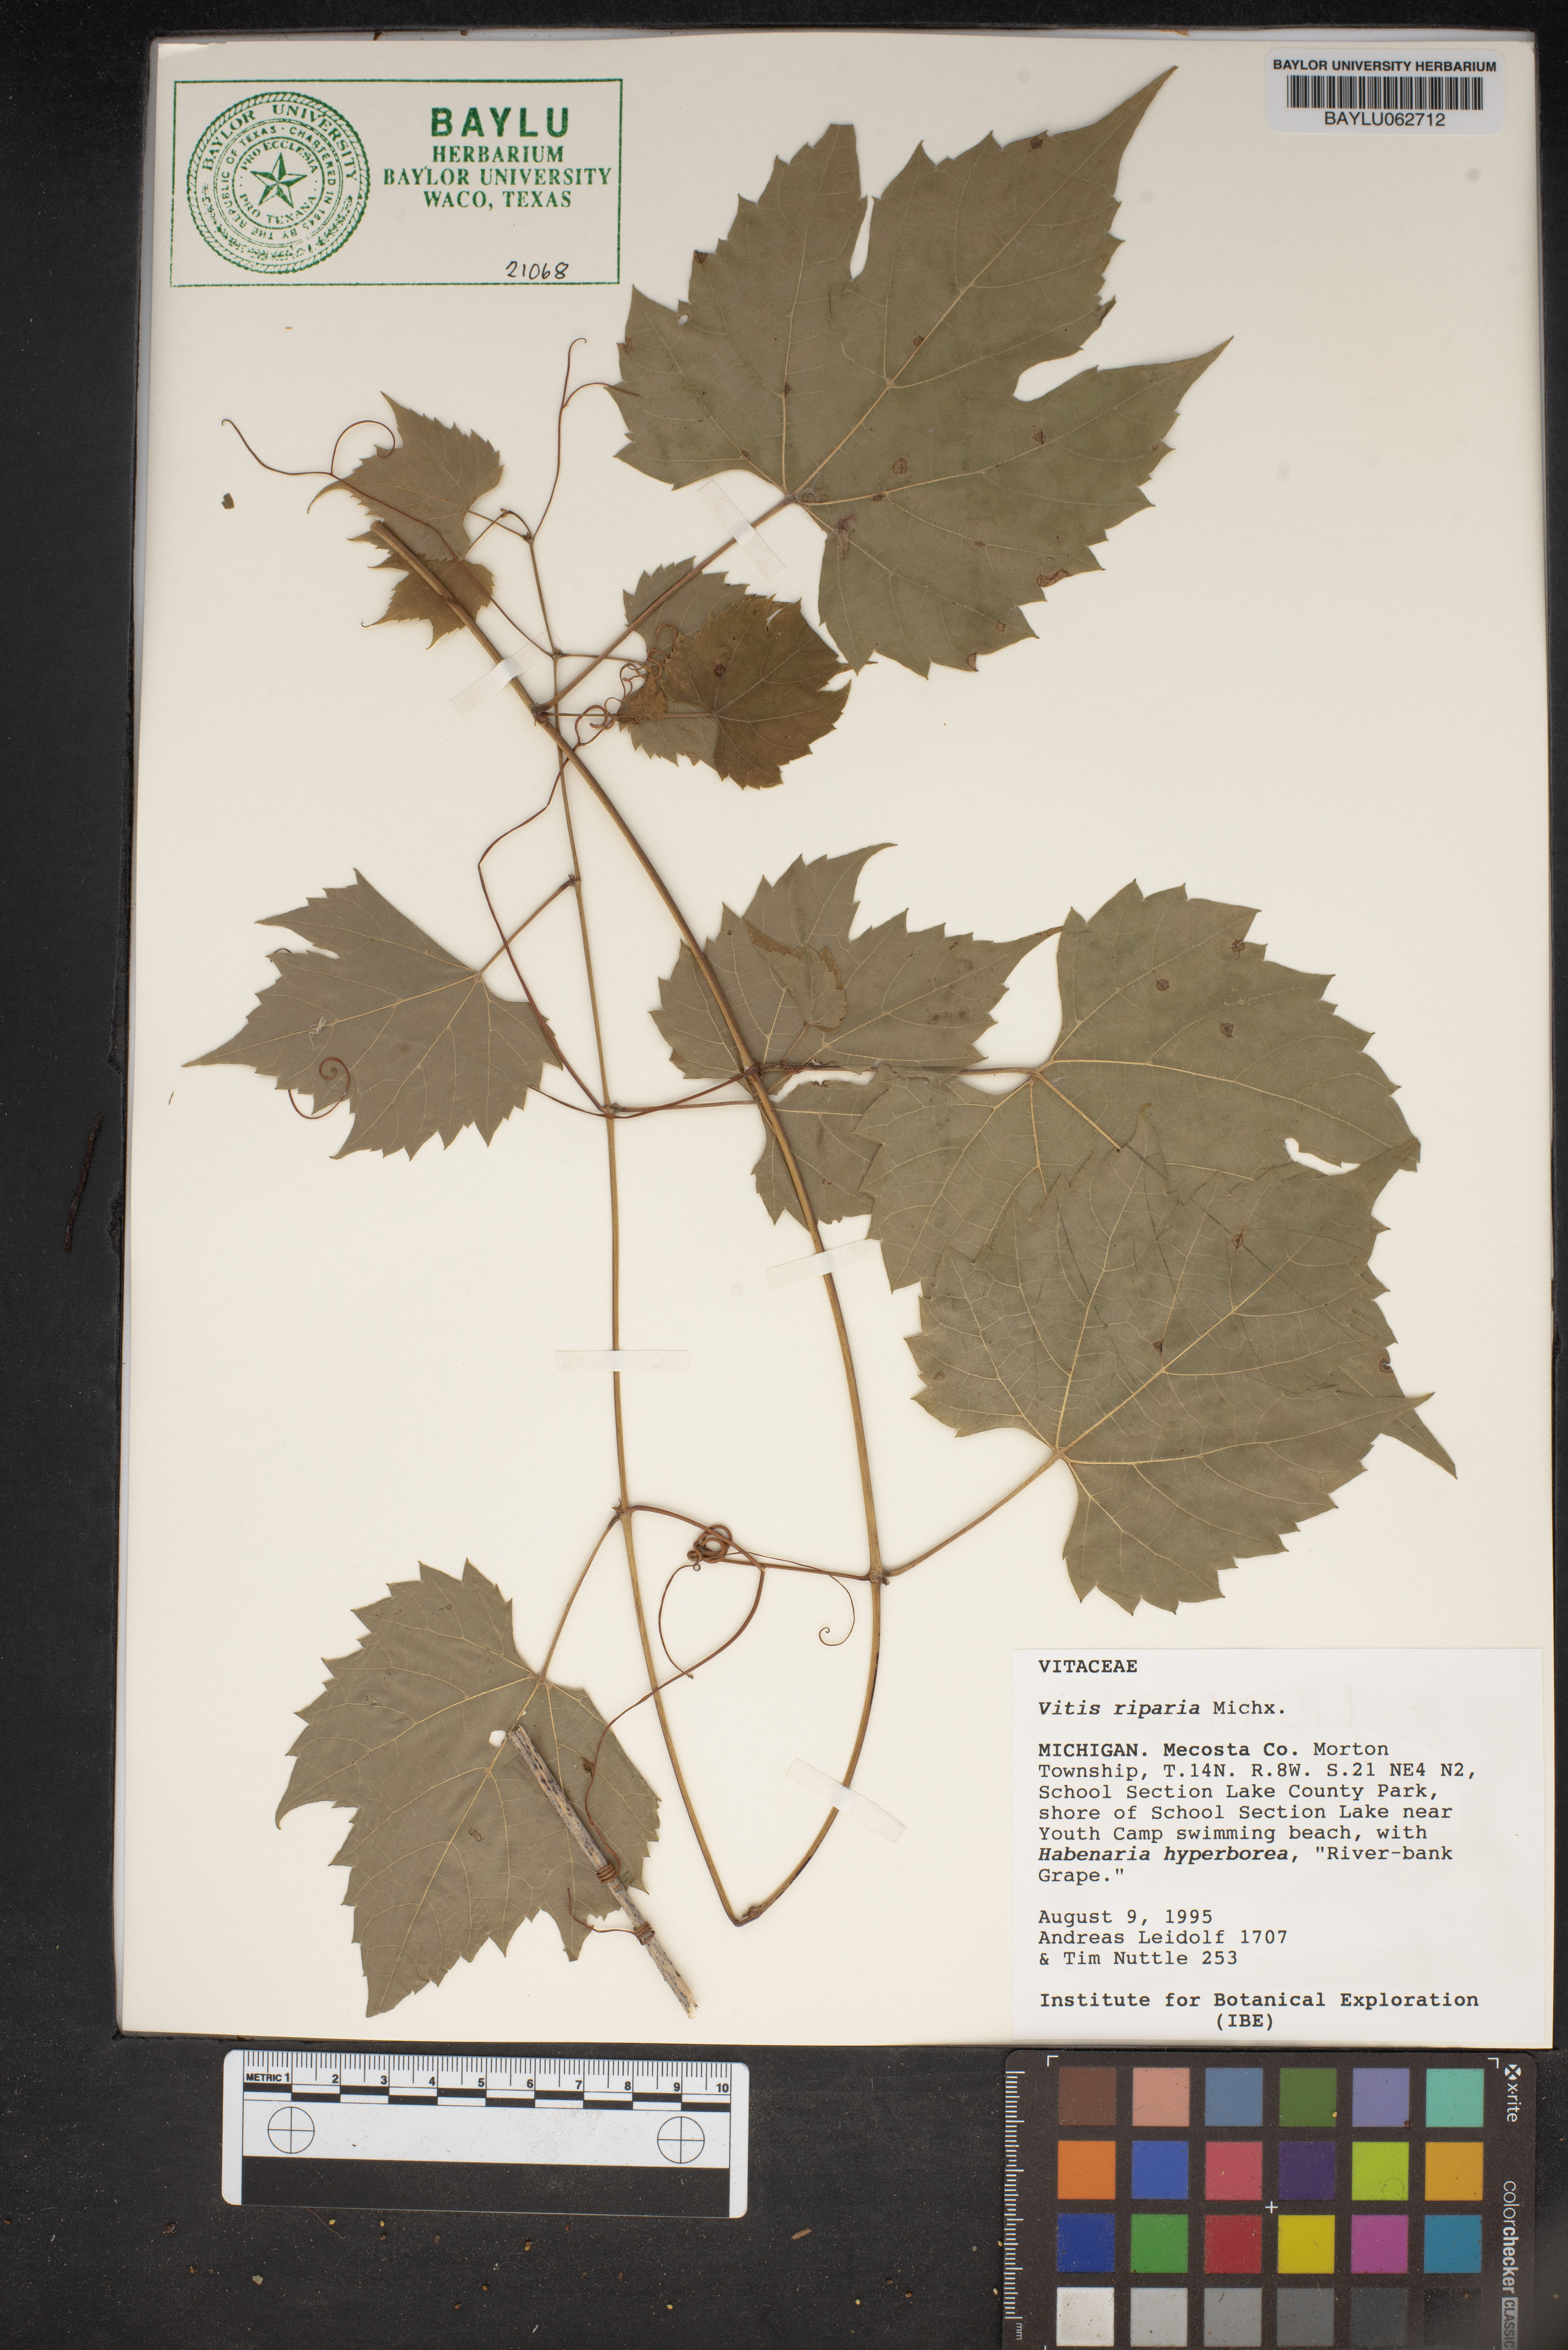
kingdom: Plantae
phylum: Tracheophyta
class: Magnoliopsida
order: Vitales
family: Vitaceae
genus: Vitis
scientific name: Vitis riparia
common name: Frost grape
